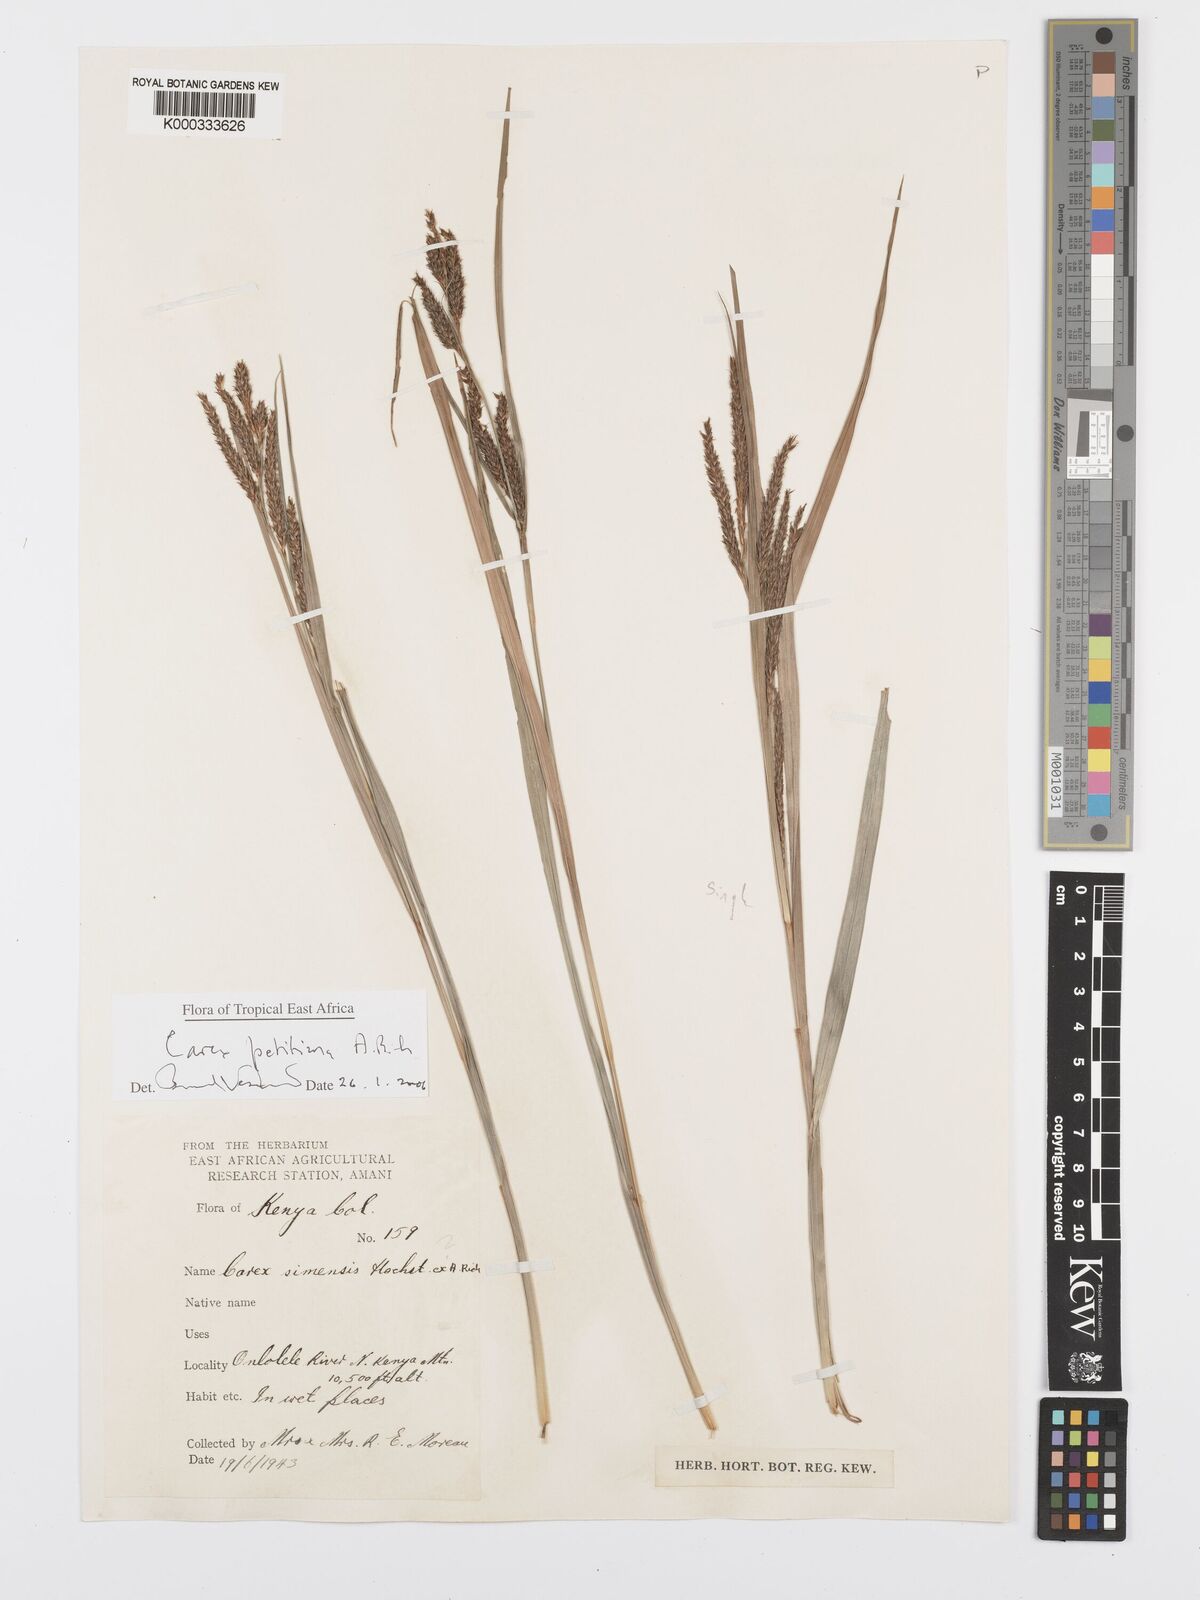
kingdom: Plantae
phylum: Tracheophyta
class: Liliopsida
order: Poales
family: Cyperaceae
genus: Carex
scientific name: Carex petitiana
